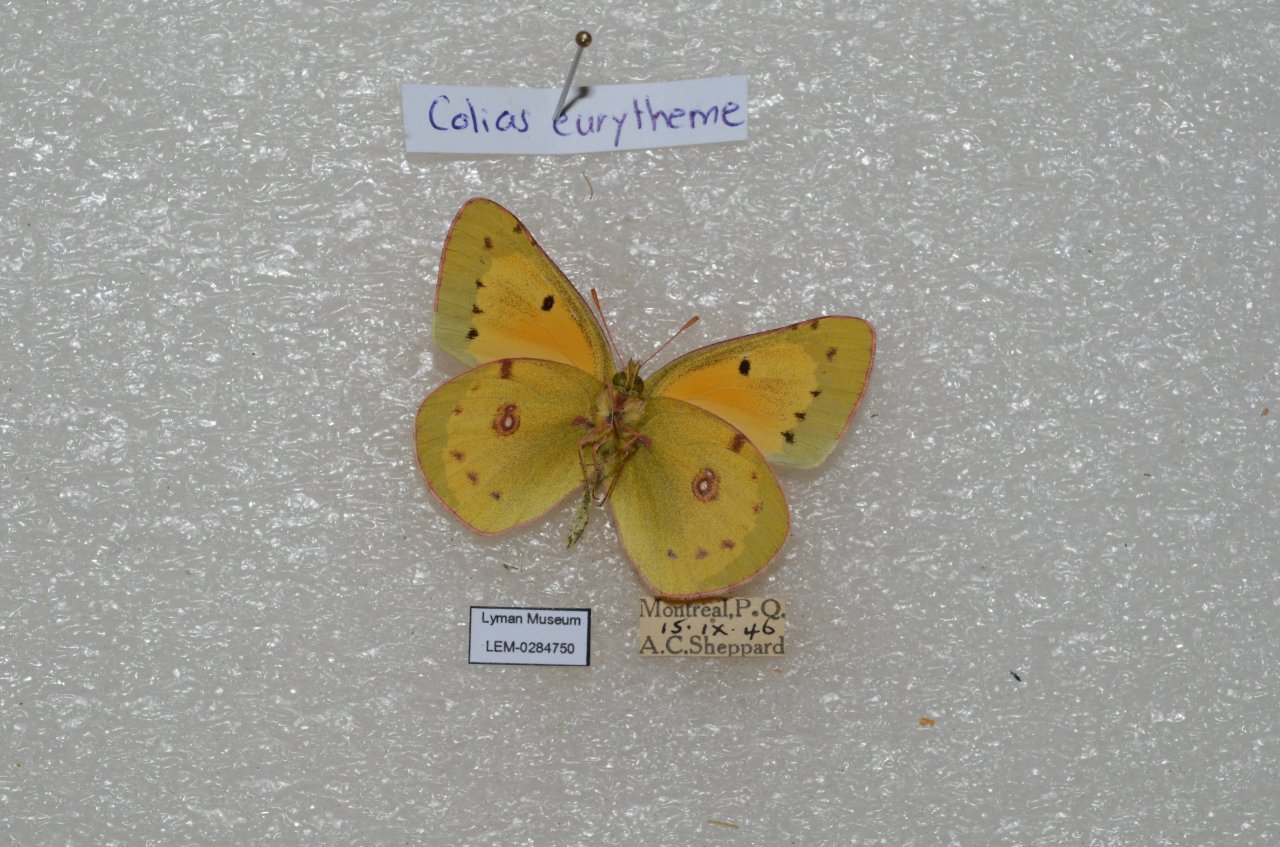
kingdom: Animalia
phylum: Arthropoda
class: Insecta
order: Lepidoptera
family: Pieridae
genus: Colias
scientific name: Colias eurytheme
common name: Orange Sulphur
